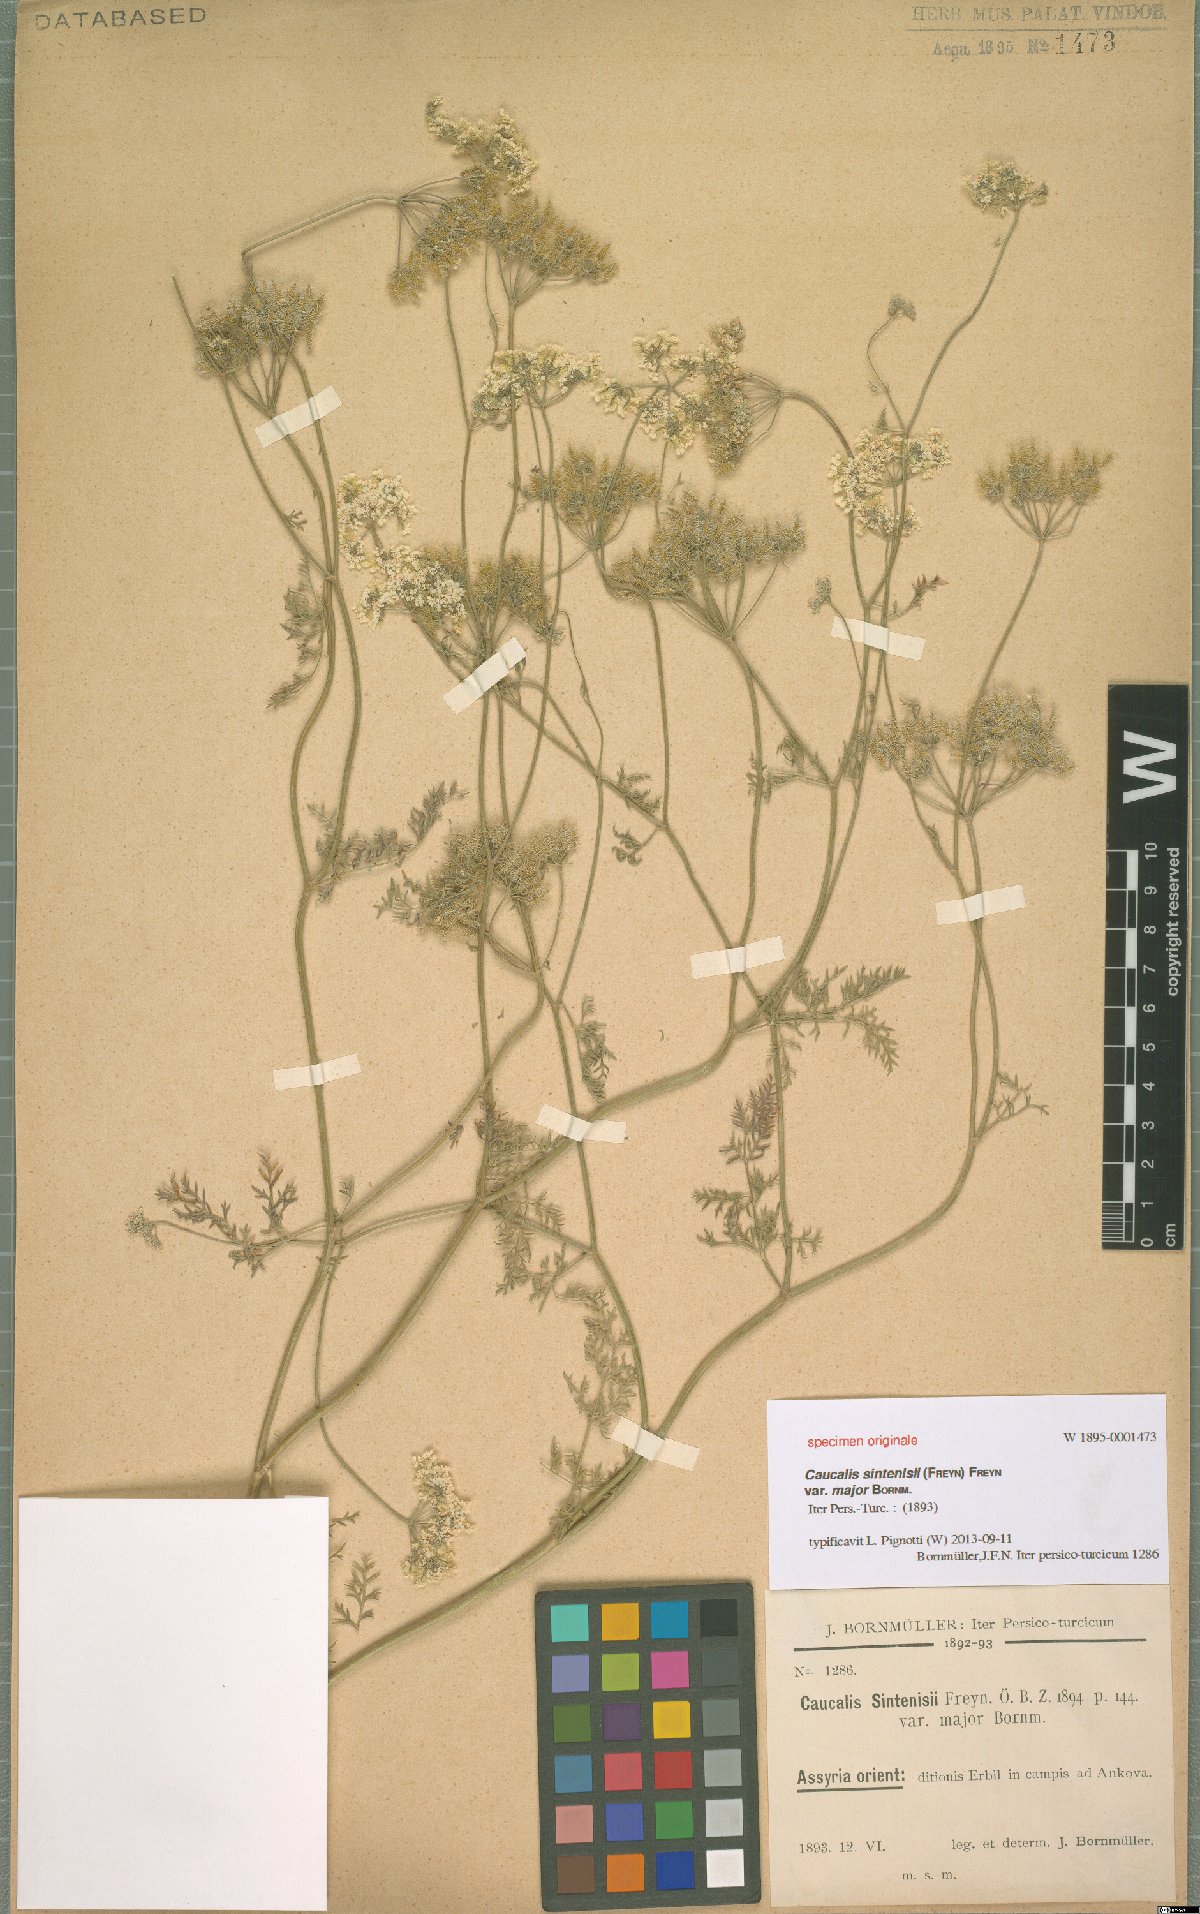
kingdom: Plantae
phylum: Tracheophyta
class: Magnoliopsida
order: Apiales
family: Apiaceae
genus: Torilis
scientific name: Torilis leptocarpa
